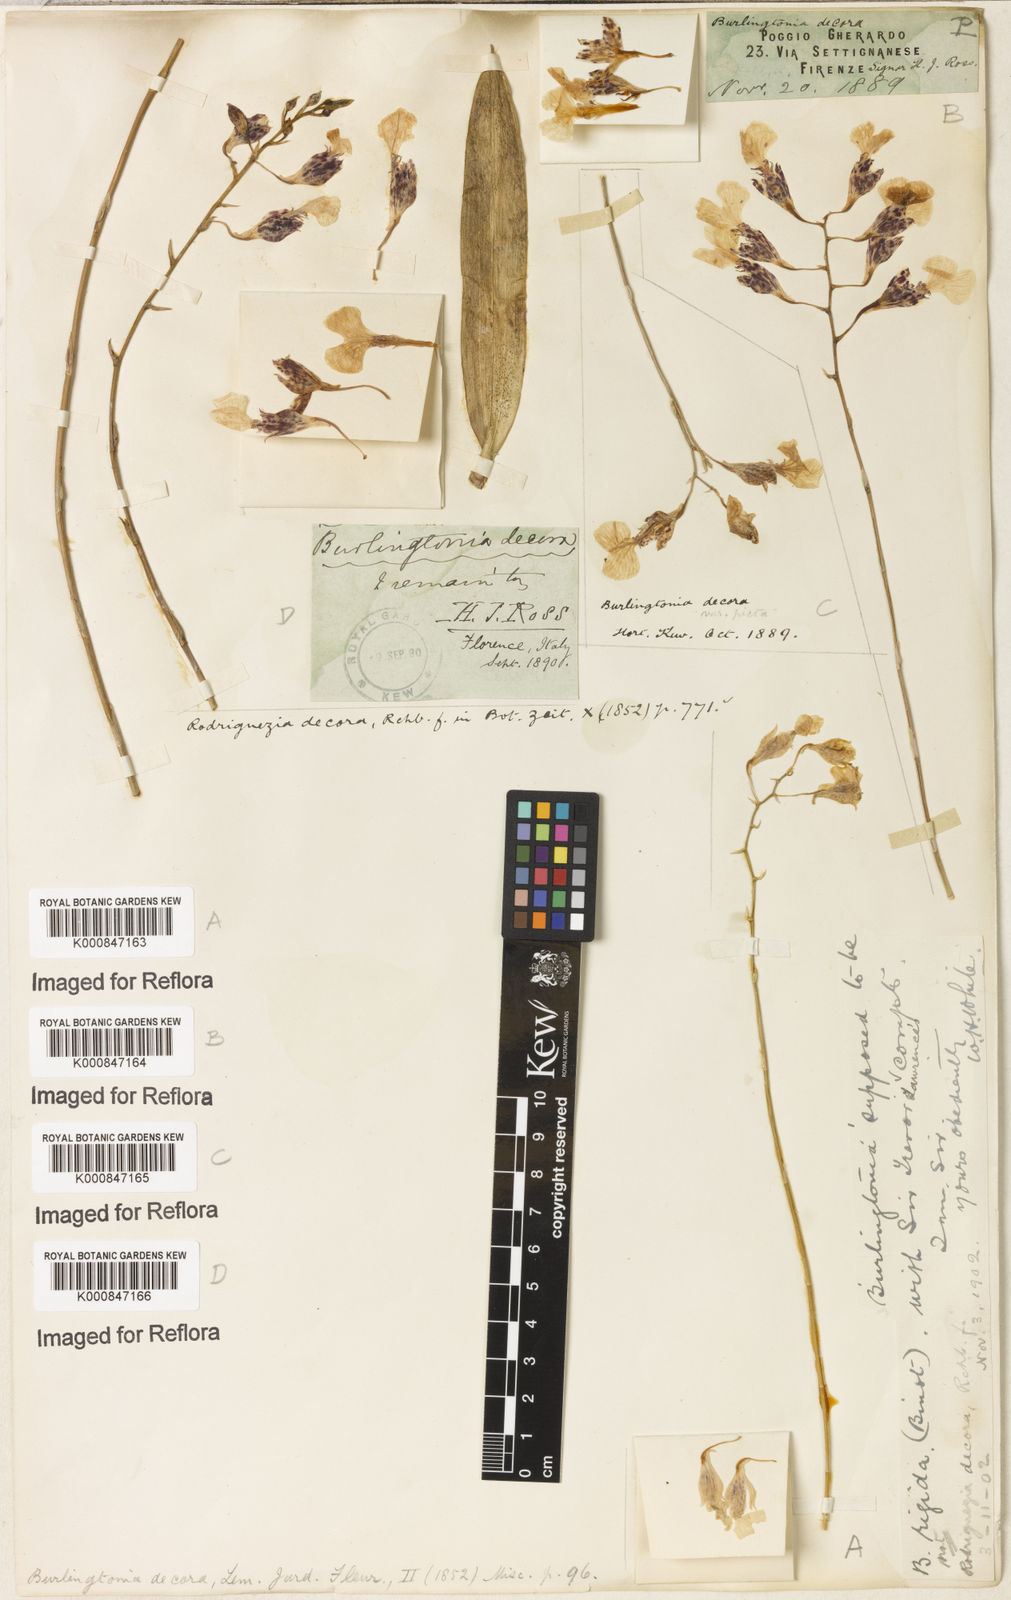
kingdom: Plantae
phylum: Tracheophyta
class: Liliopsida
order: Asparagales
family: Orchidaceae
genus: Rodriguezia
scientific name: Rodriguezia decora
